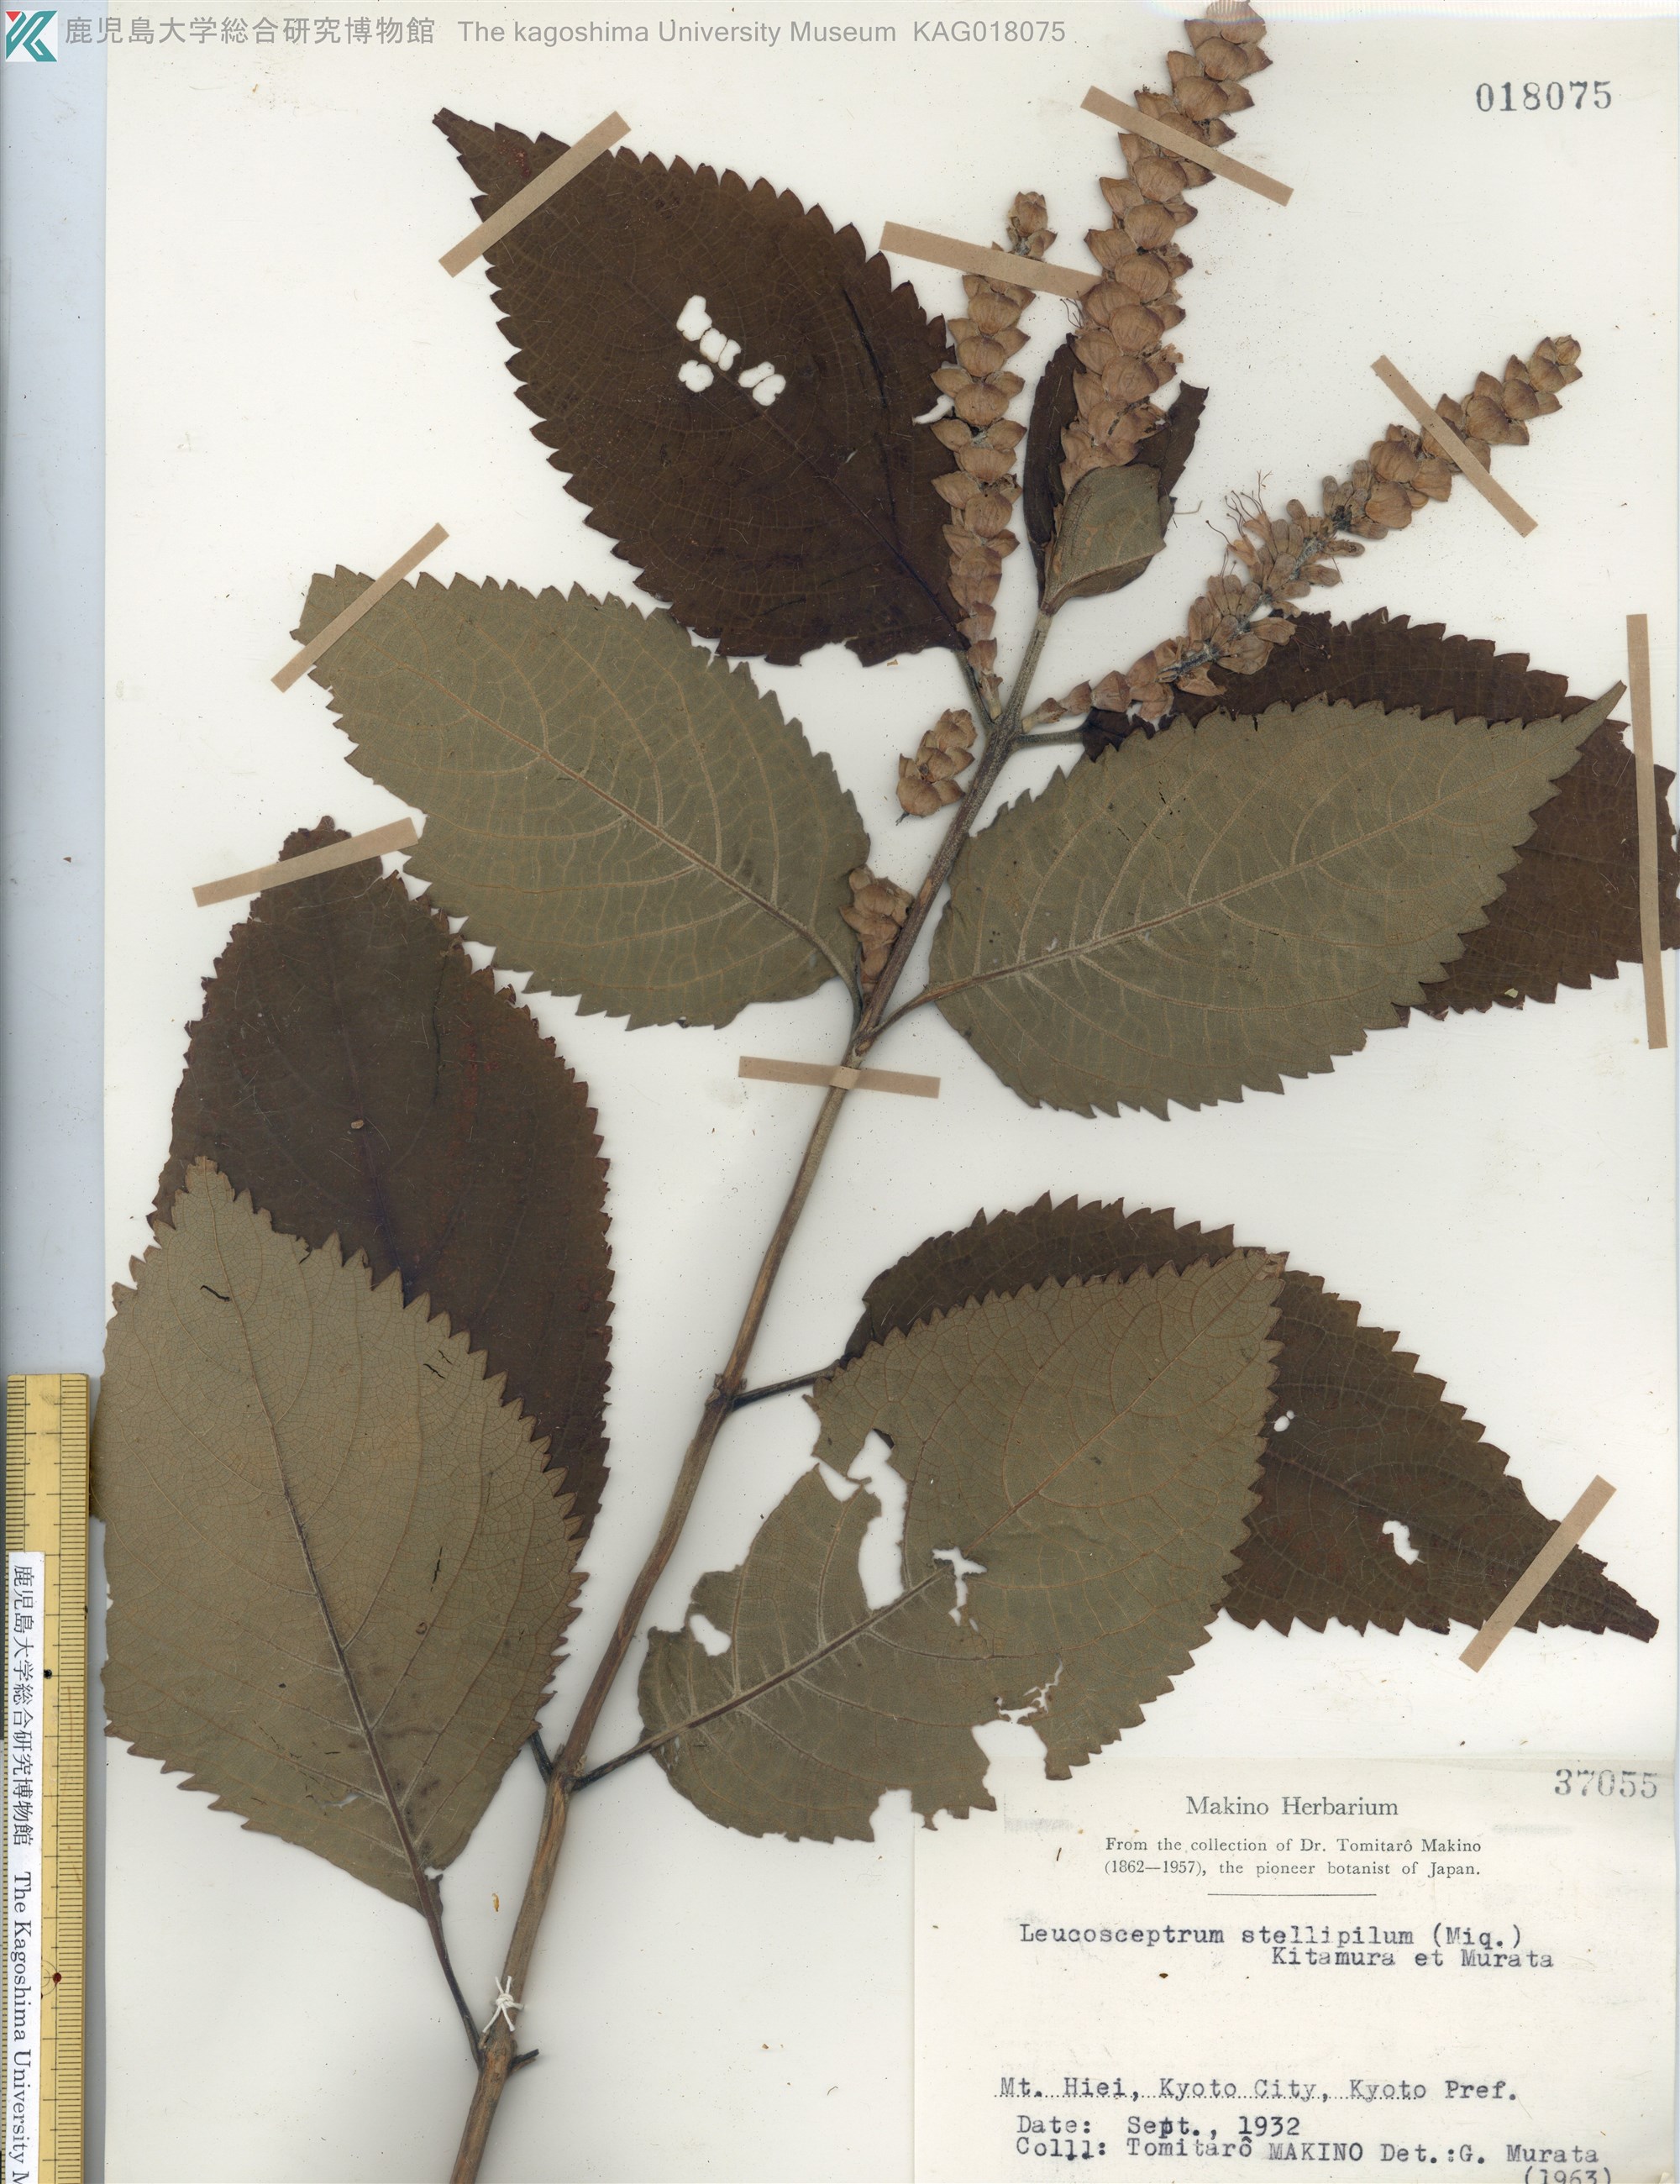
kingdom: Plantae
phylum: Tracheophyta
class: Magnoliopsida
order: Lamiales
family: Lamiaceae
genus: Comanthosphace
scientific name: Comanthosphace stellipila
